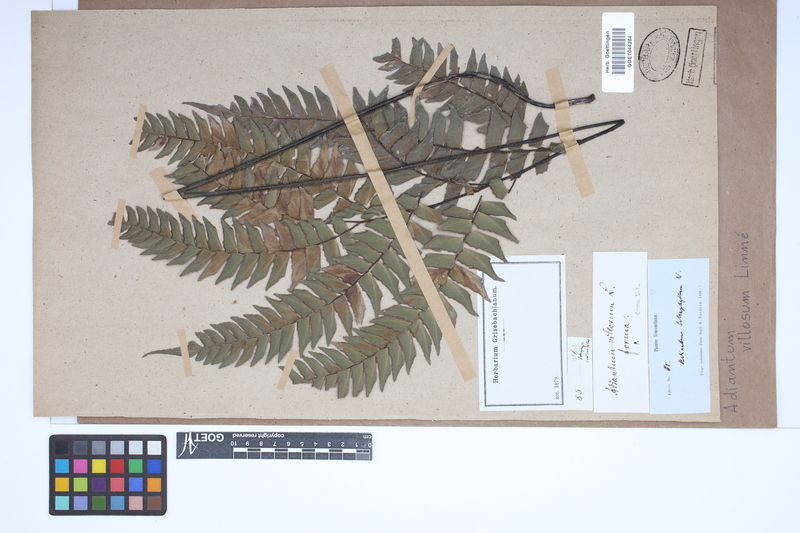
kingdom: Plantae
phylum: Tracheophyta
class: Polypodiopsida
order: Polypodiales
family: Pteridaceae
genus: Adiantum
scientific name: Adiantum villosum
